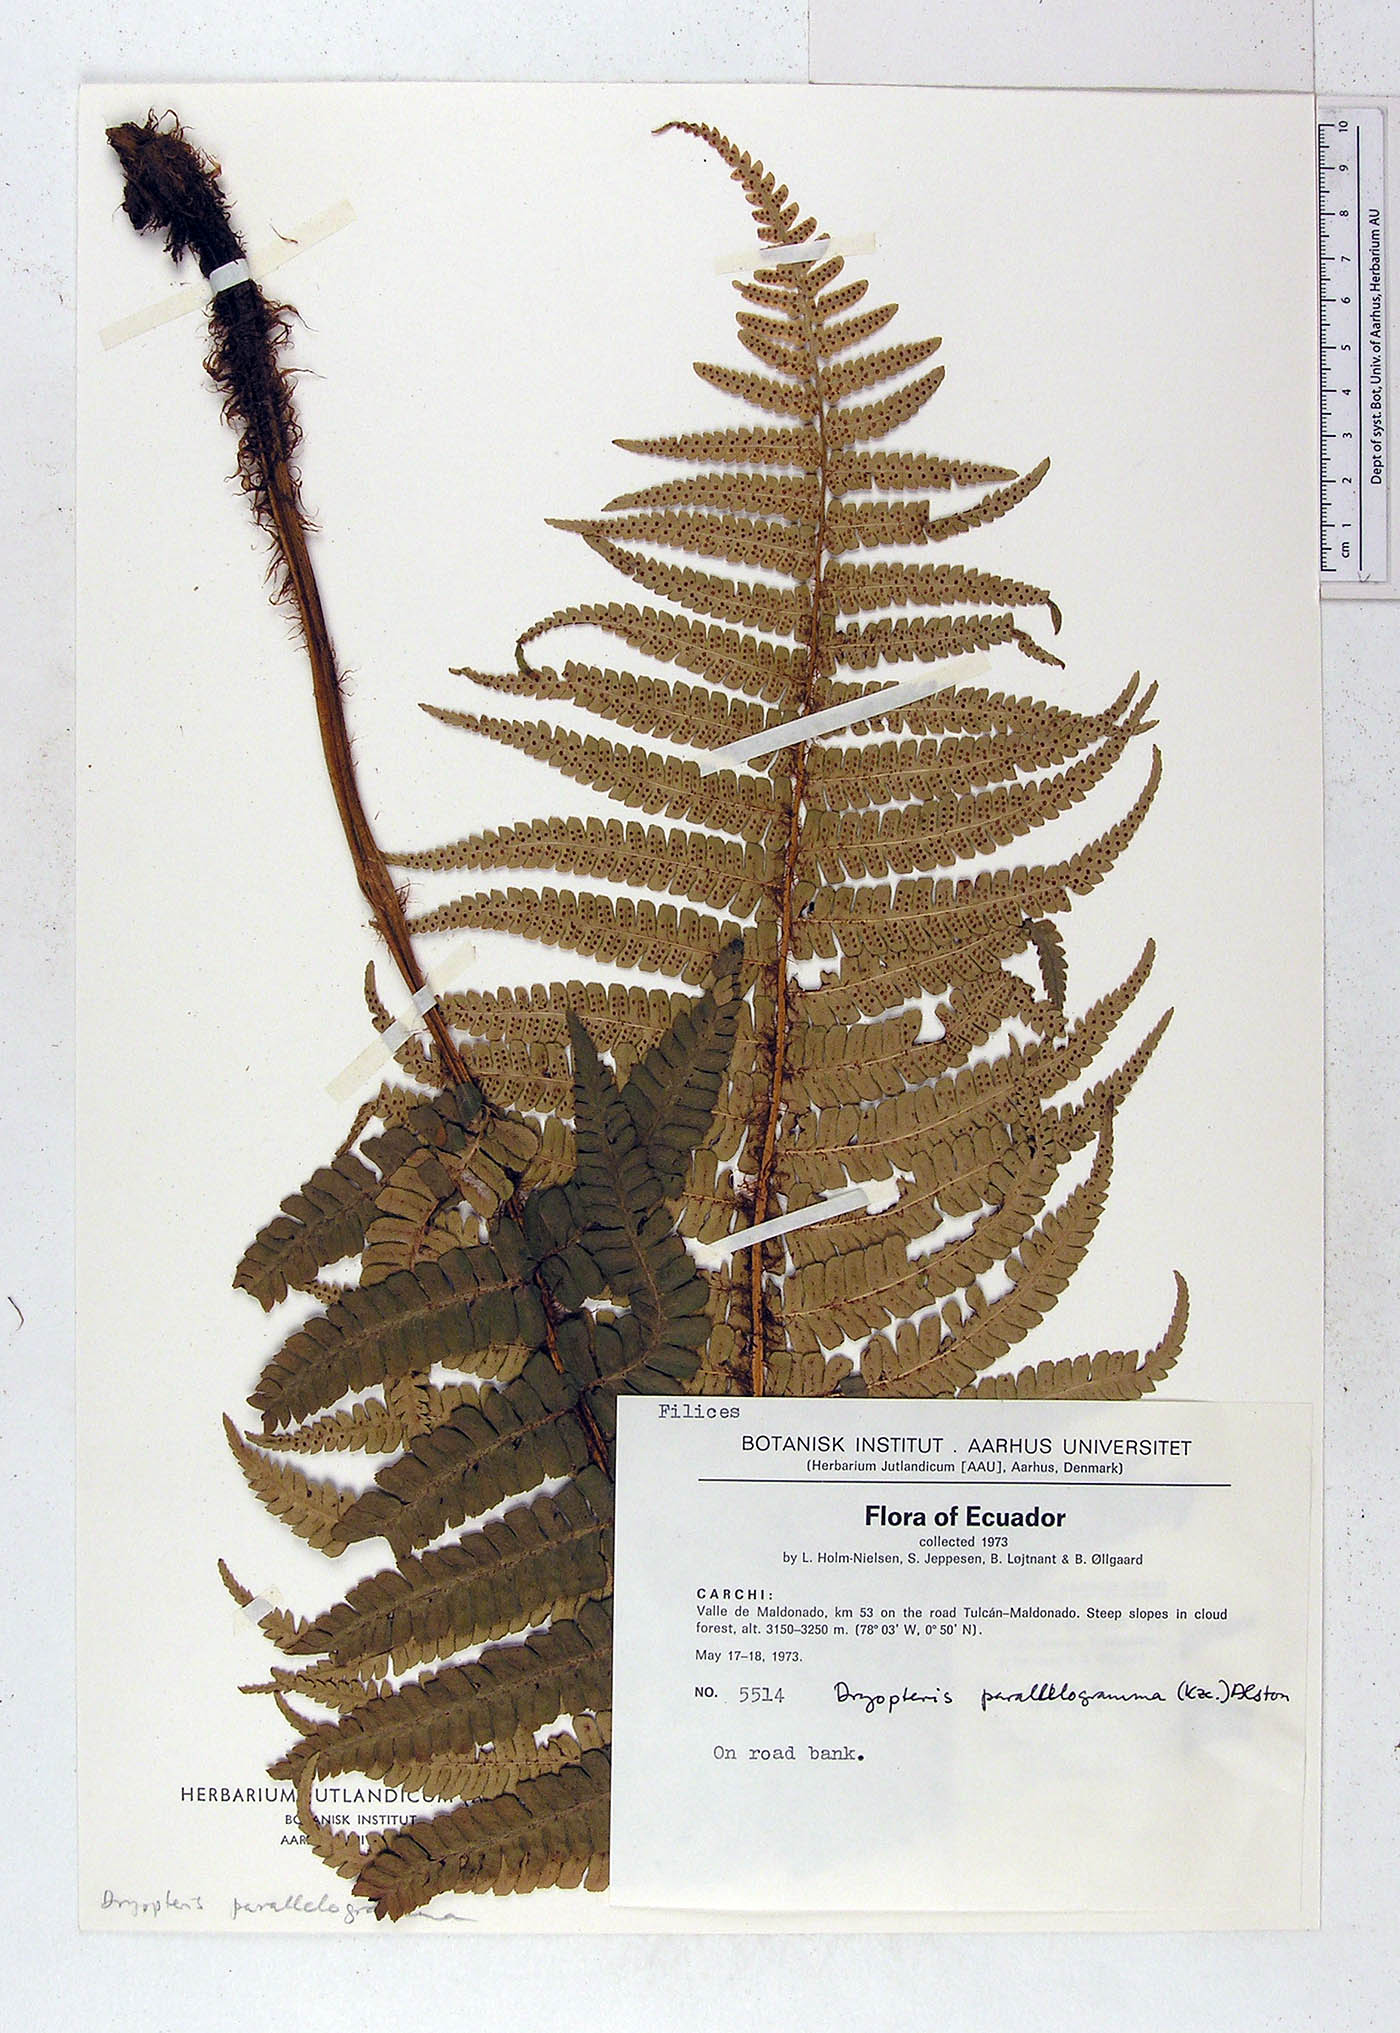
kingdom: Plantae
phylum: Tracheophyta
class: Polypodiopsida
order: Polypodiales
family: Dryopteridaceae
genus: Dryopteris
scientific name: Dryopteris wallichiana
